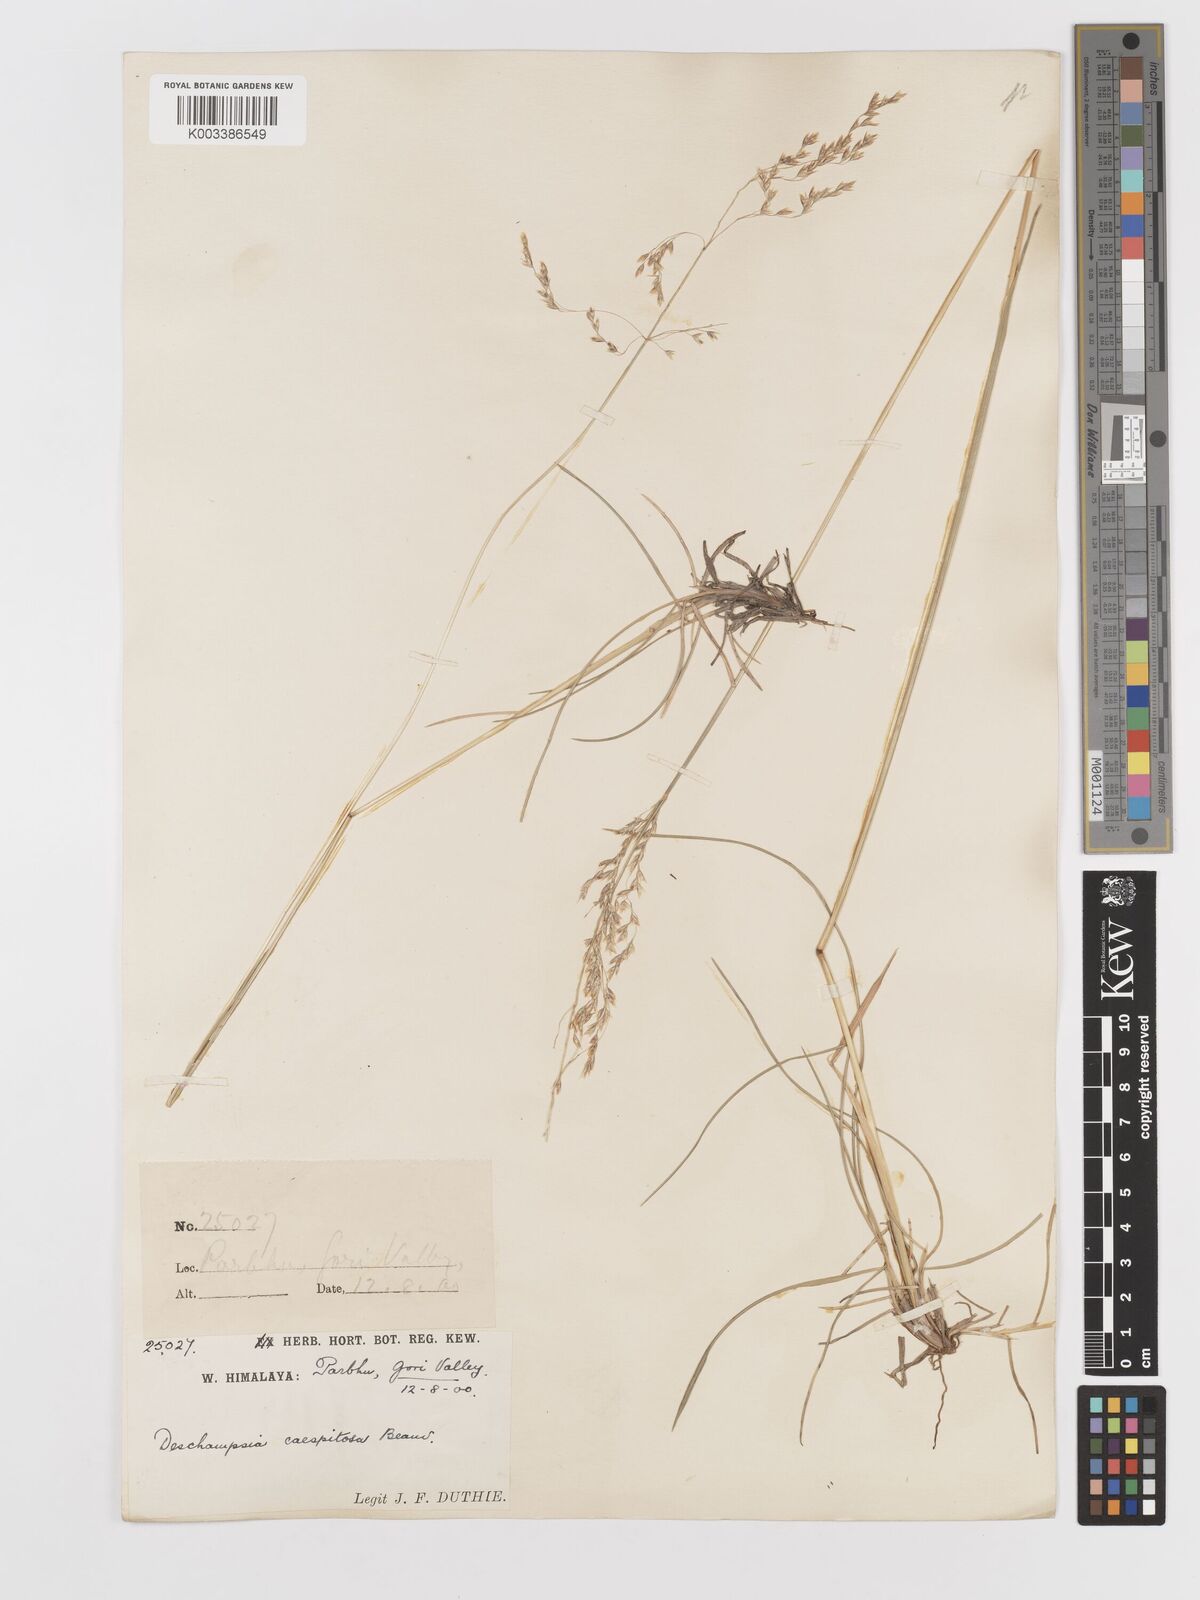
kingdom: Plantae
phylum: Tracheophyta
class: Liliopsida
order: Poales
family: Poaceae
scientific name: Poaceae
